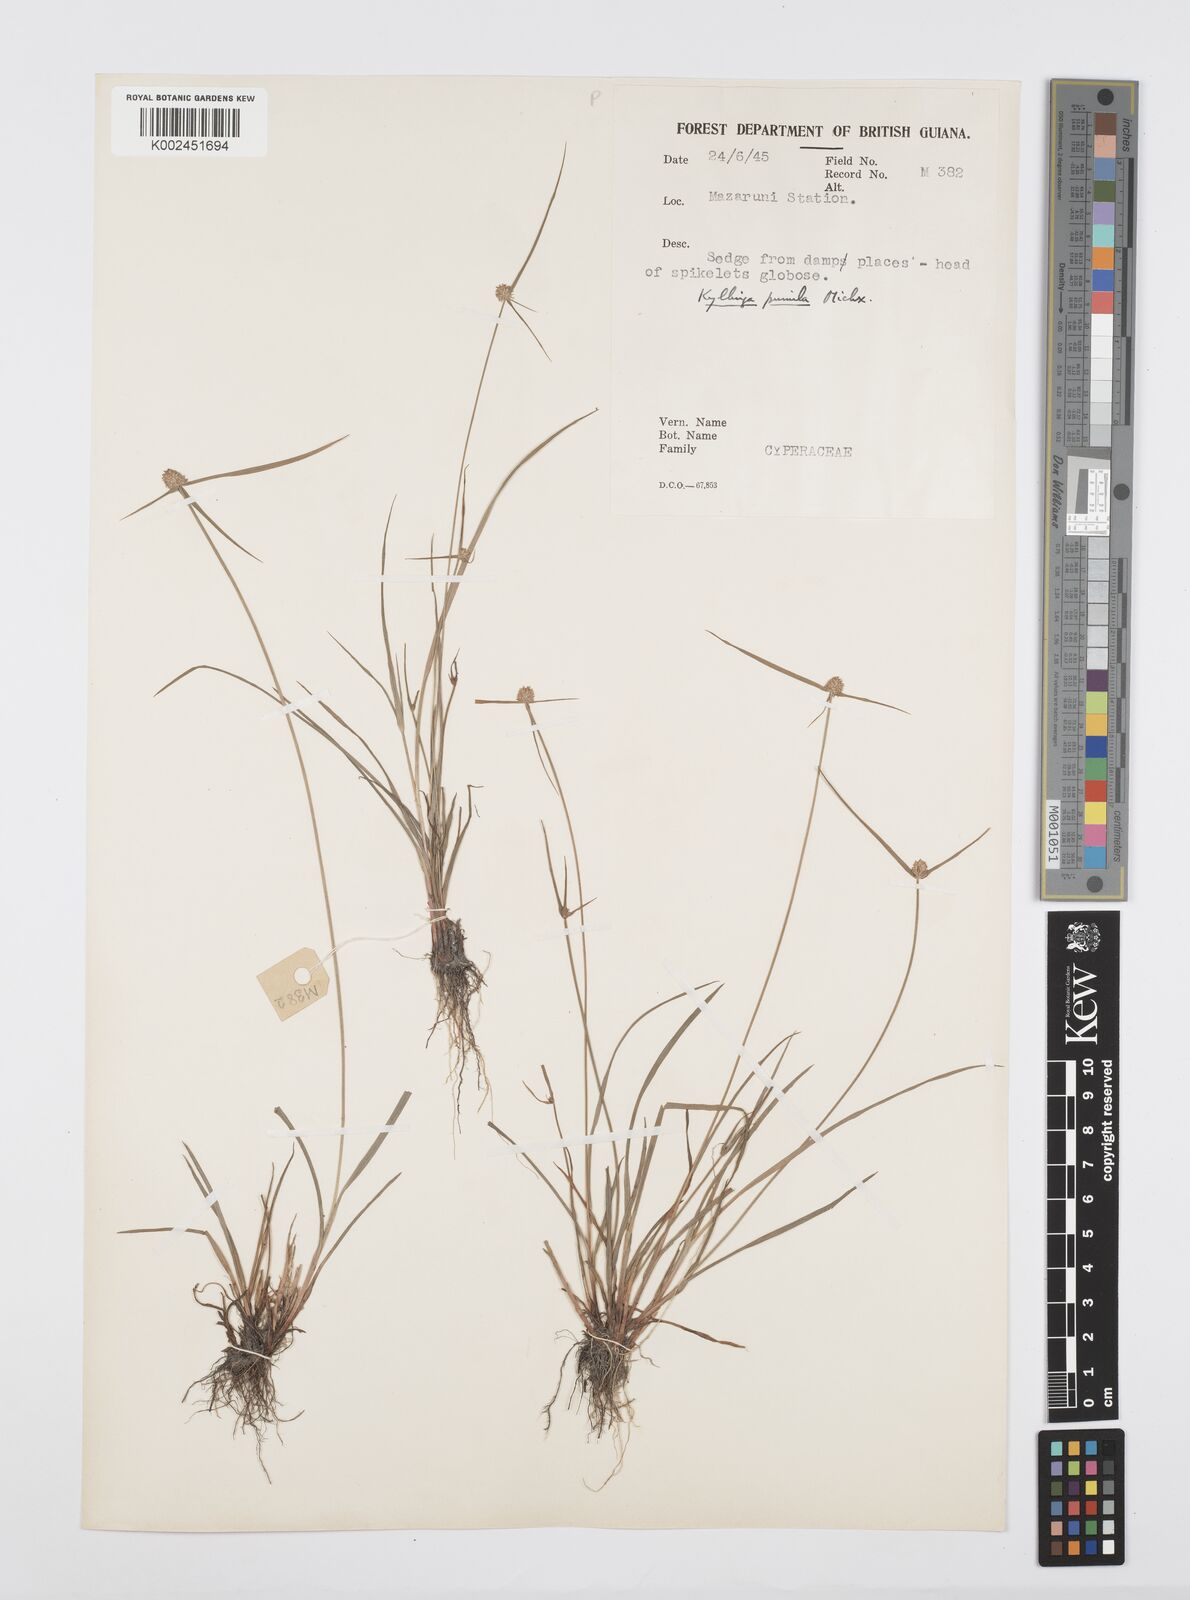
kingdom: Plantae
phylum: Tracheophyta
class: Liliopsida
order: Poales
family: Cyperaceae
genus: Cyperus
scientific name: Cyperus
